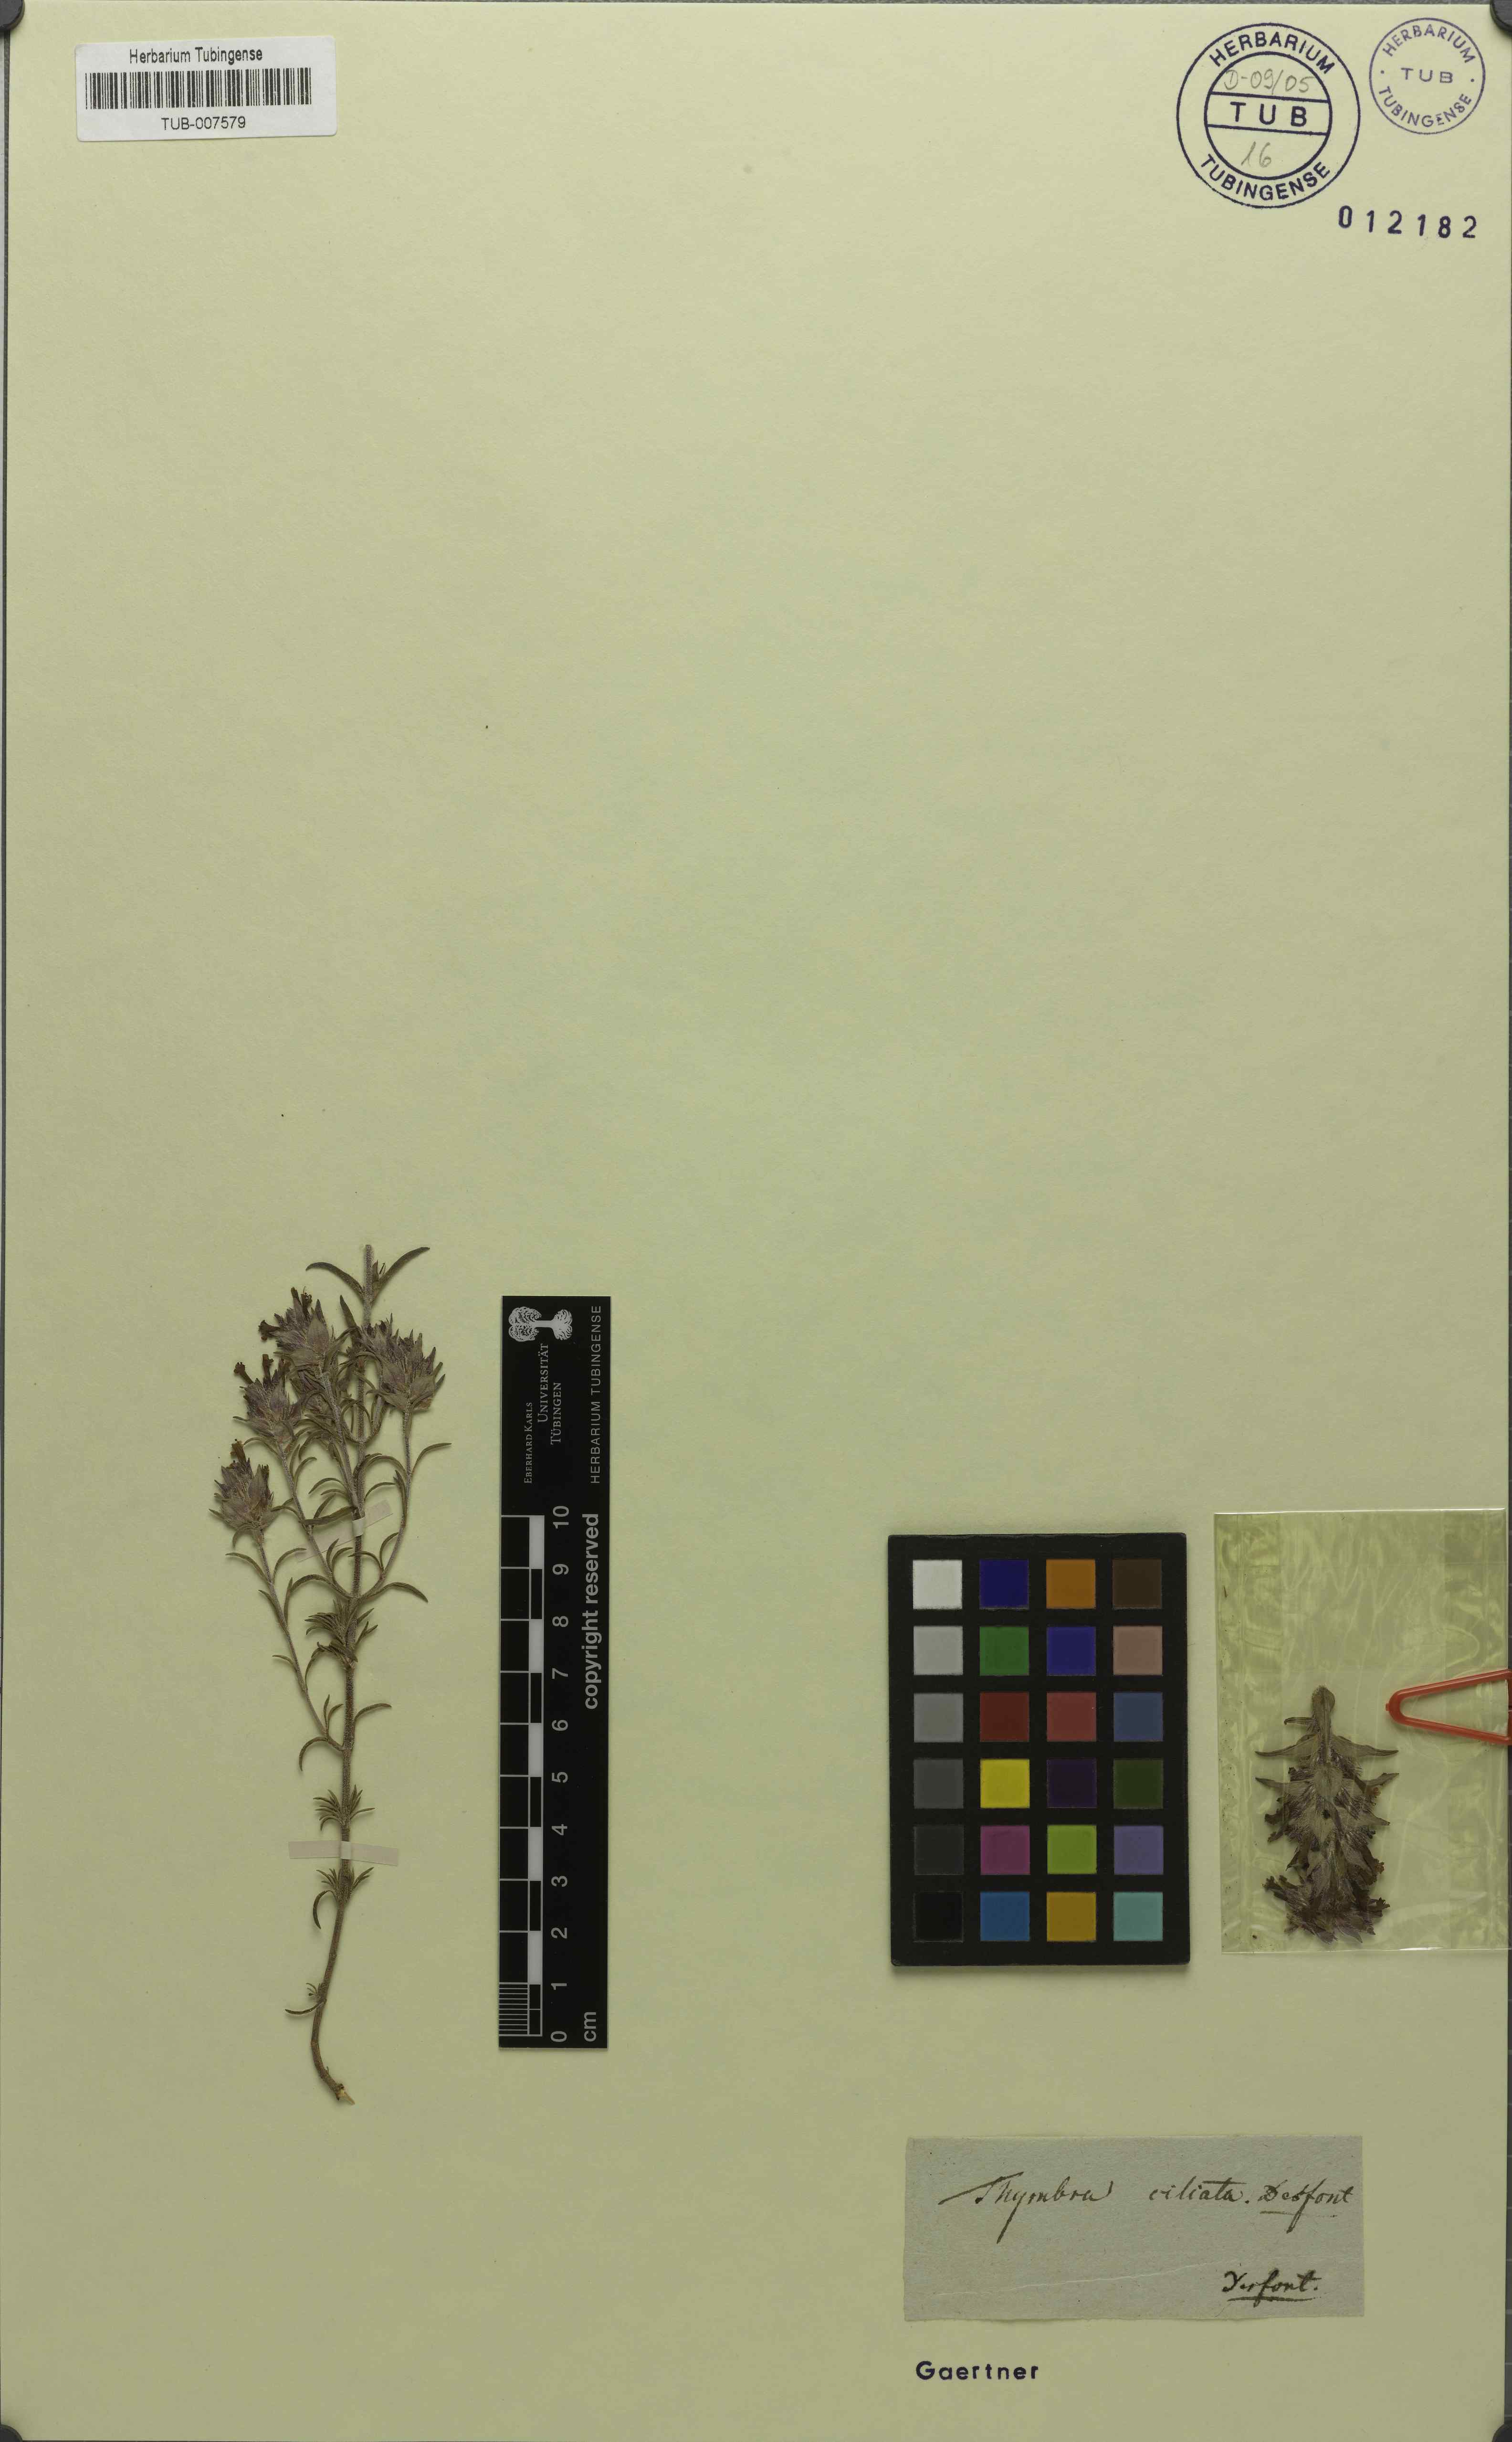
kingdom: Plantae
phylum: Tracheophyta
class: Magnoliopsida
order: Lamiales
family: Lamiaceae
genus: Thymus
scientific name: Thymus munbyanus
